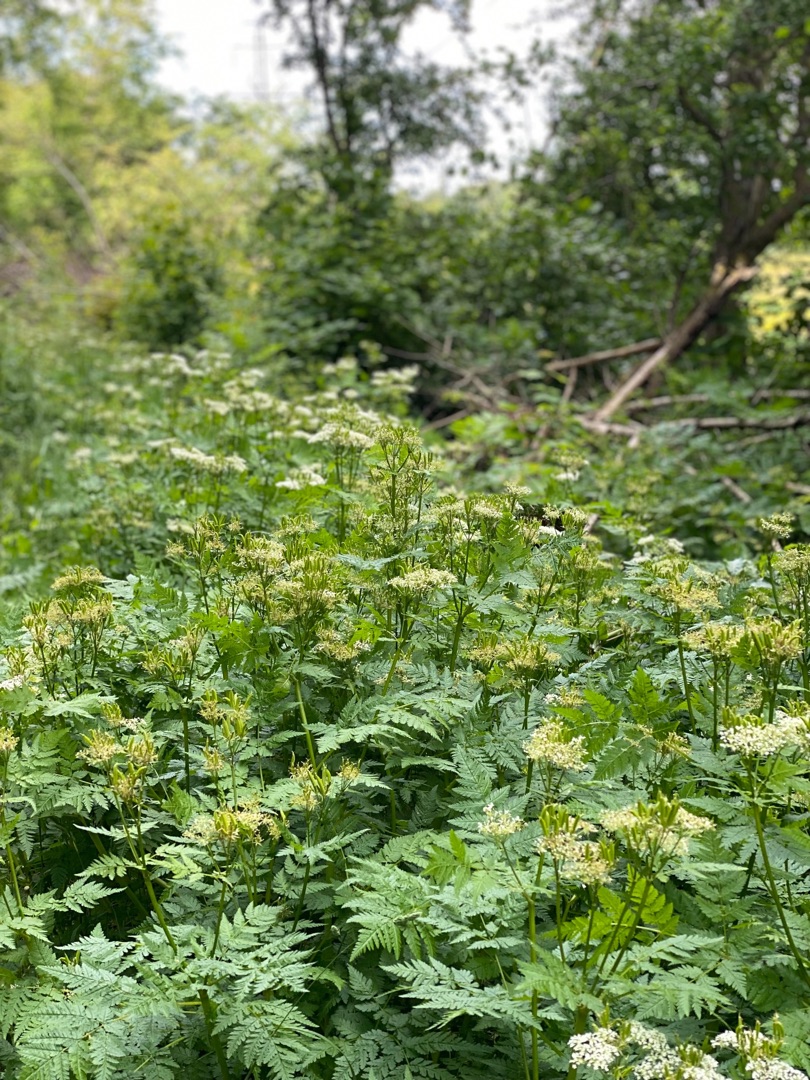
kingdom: Plantae
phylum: Tracheophyta
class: Magnoliopsida
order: Apiales
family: Apiaceae
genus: Myrrhis
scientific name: Myrrhis odorata
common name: Sødskærm
